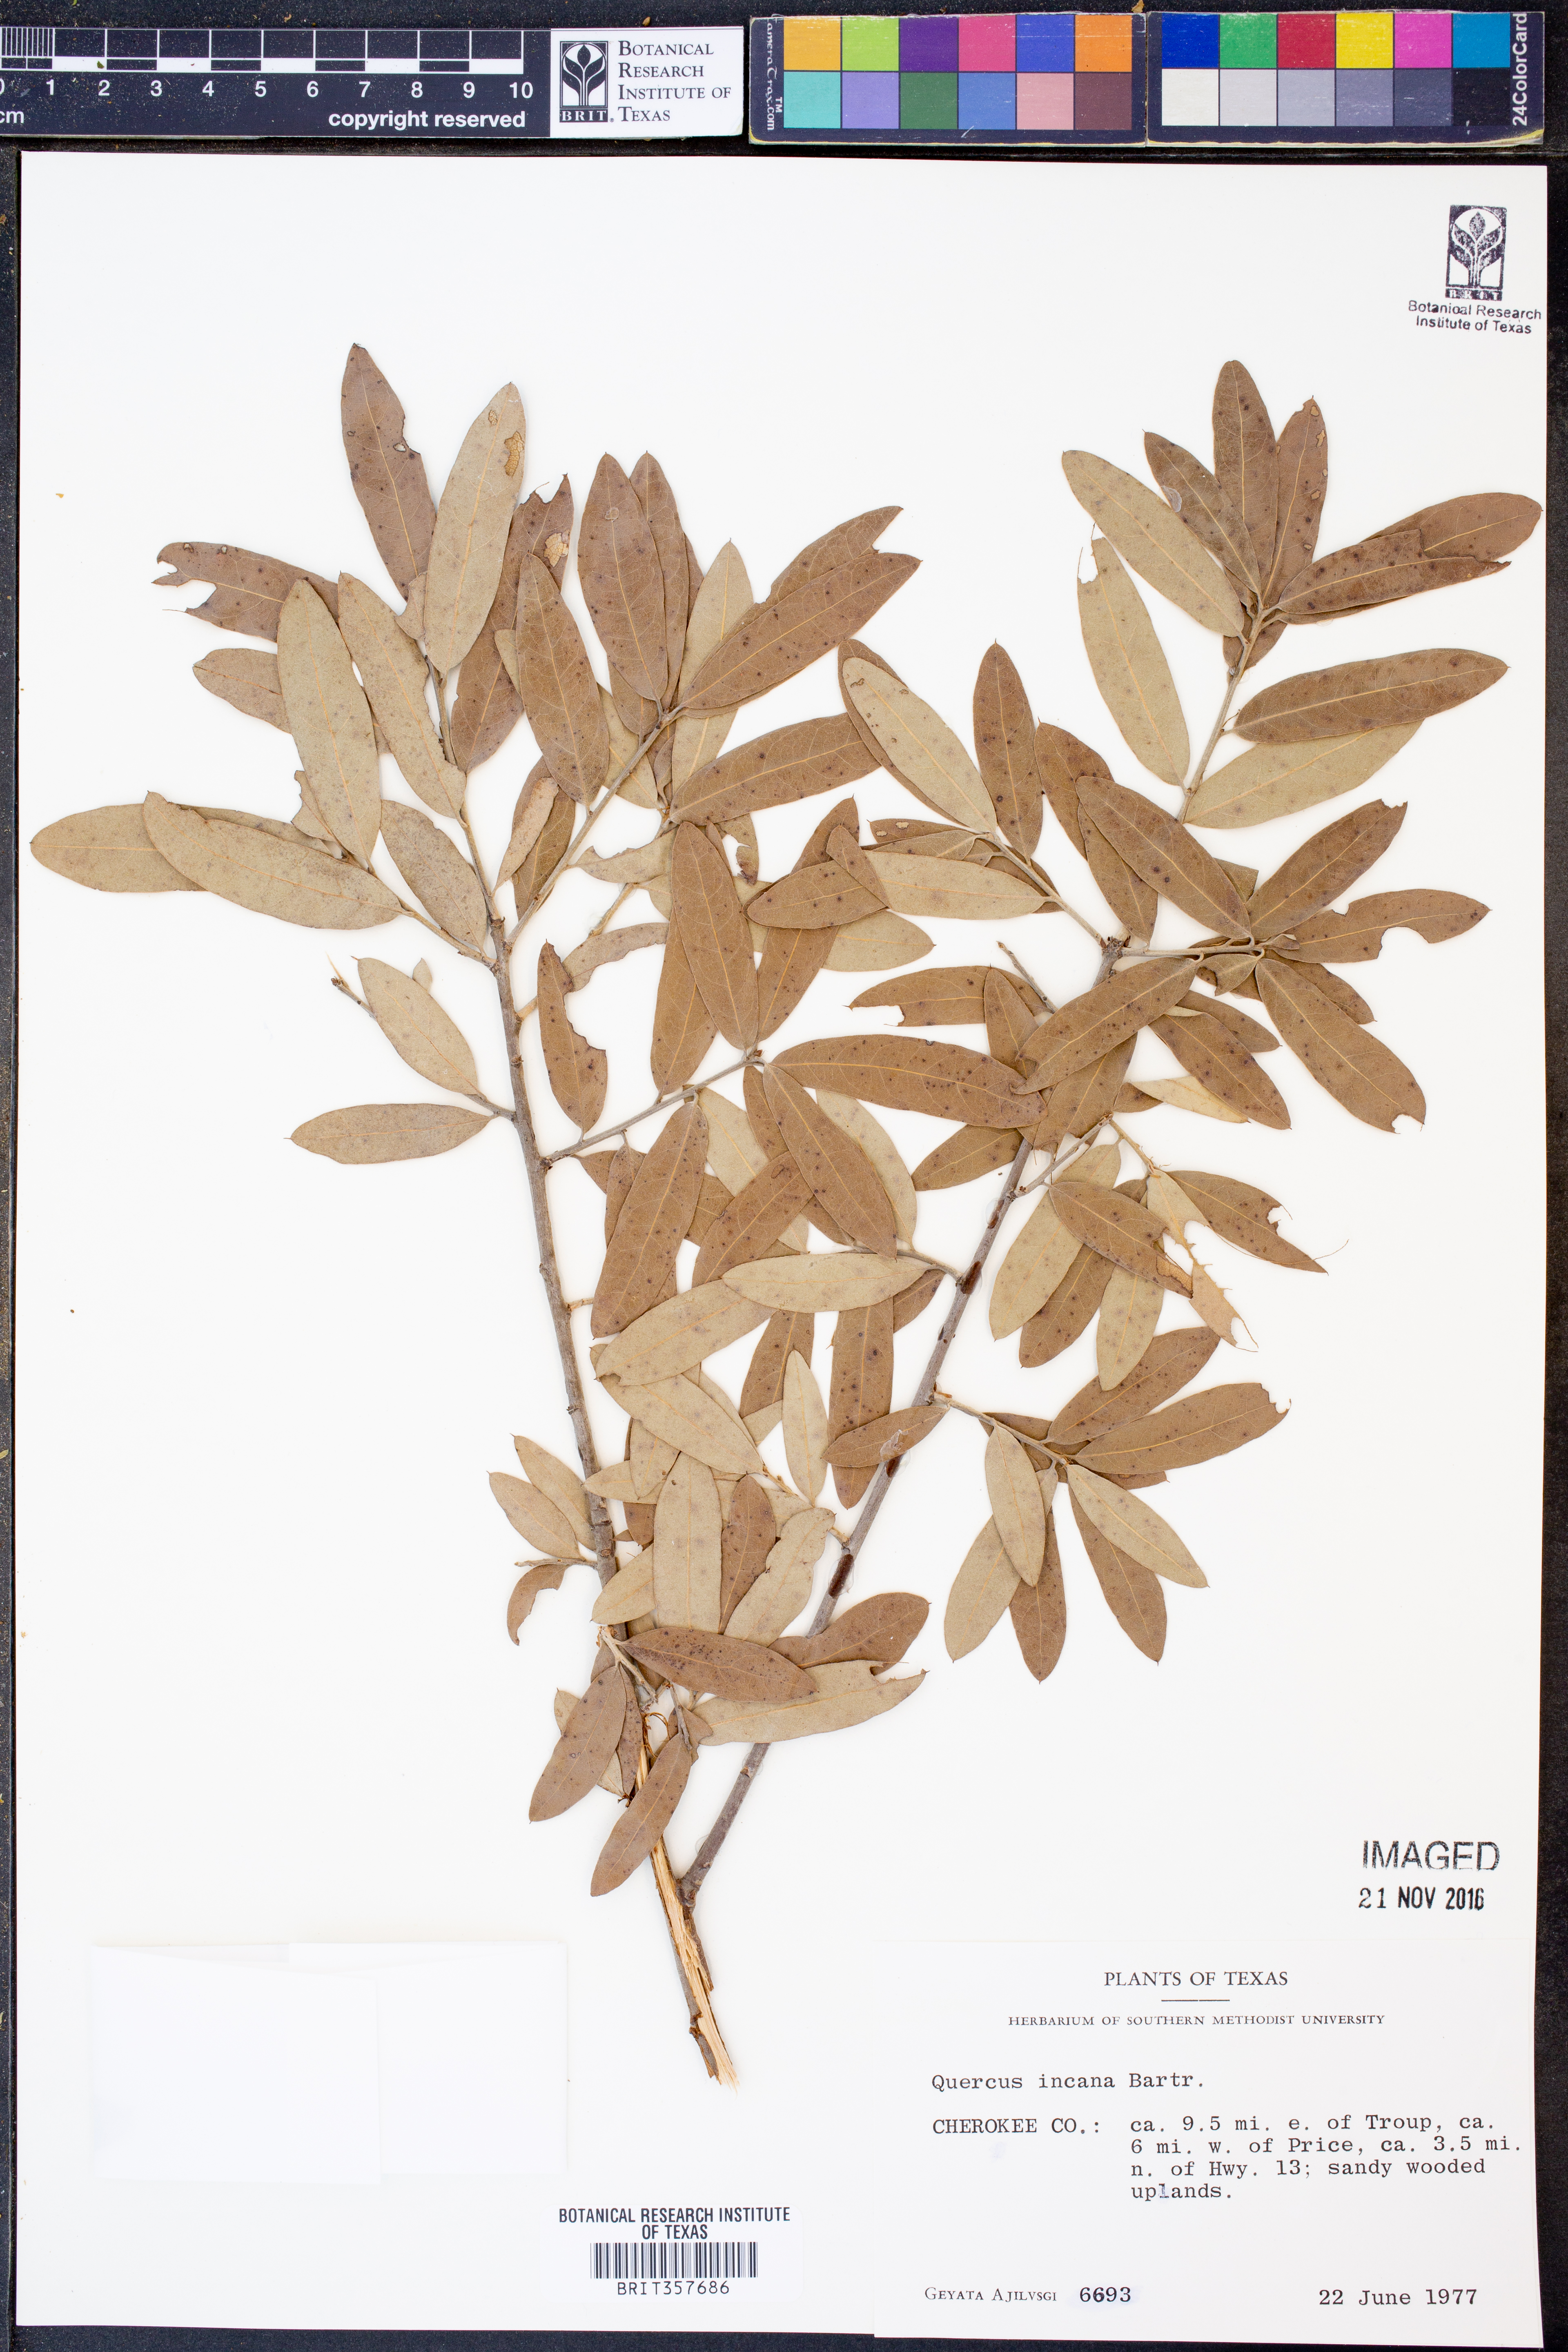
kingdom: Plantae
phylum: Tracheophyta
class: Magnoliopsida
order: Fagales
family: Fagaceae
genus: Quercus
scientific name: Quercus incana
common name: Bluejack oak
